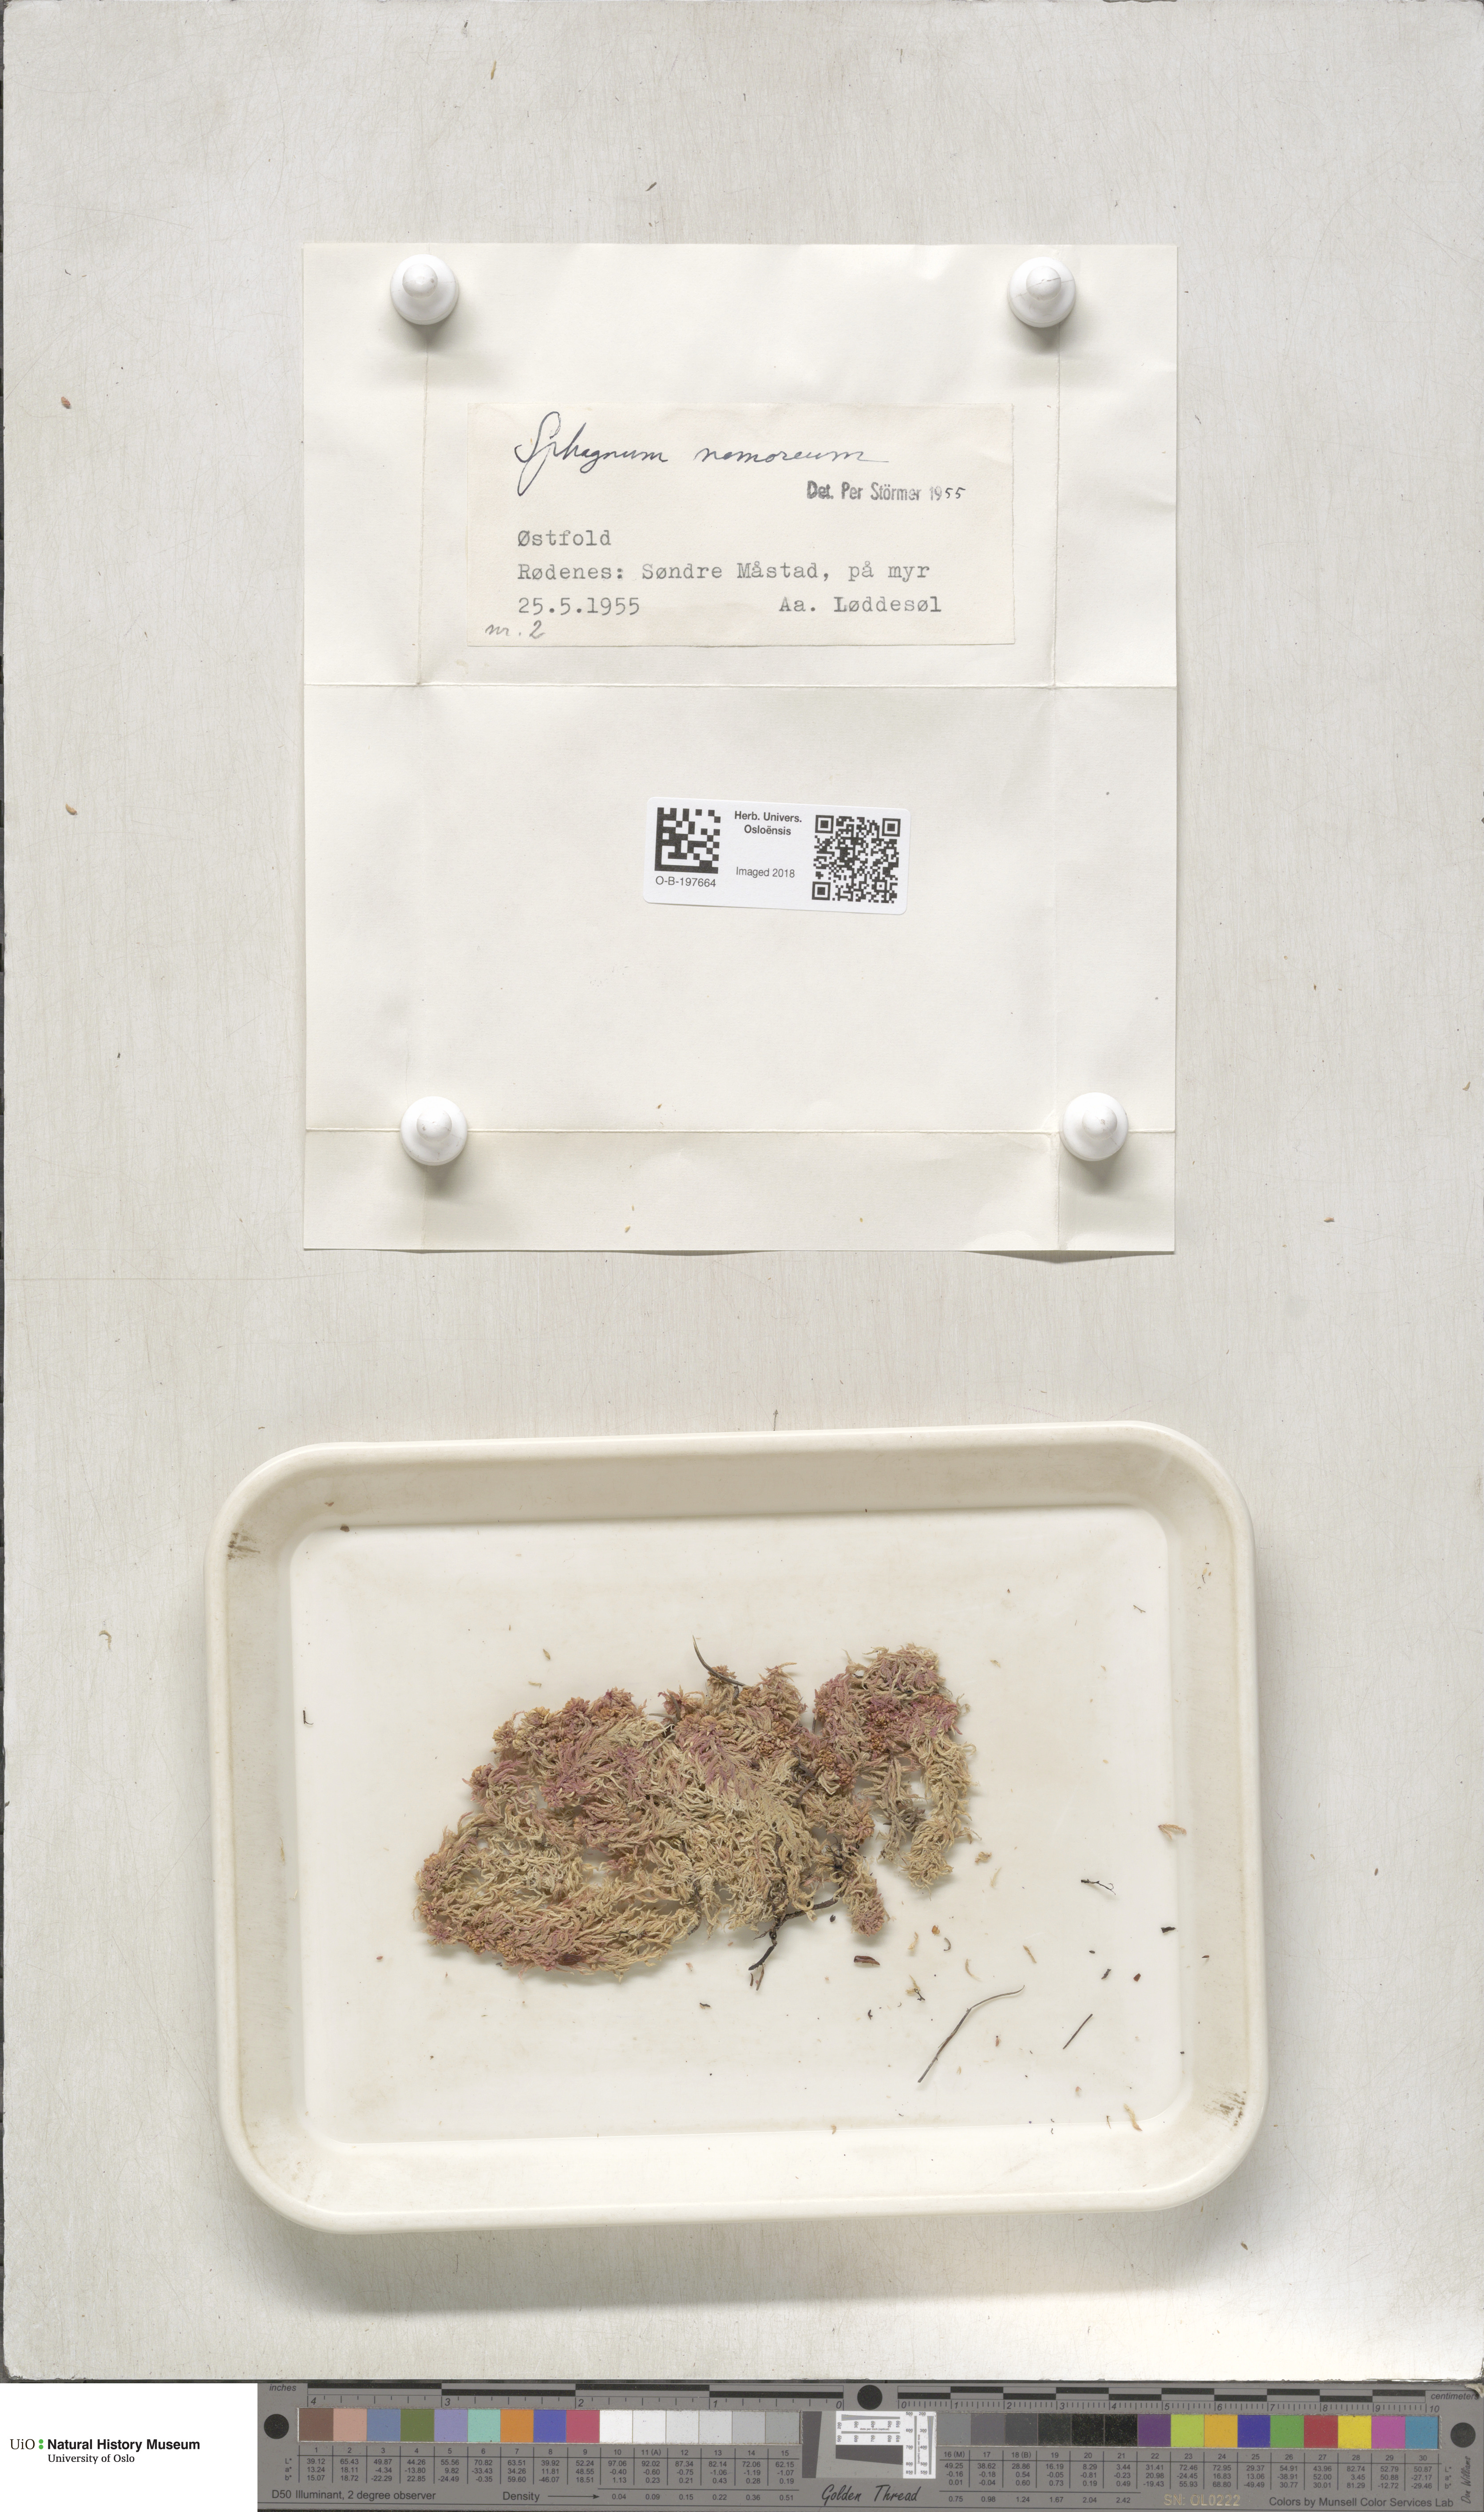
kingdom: Plantae
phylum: Bryophyta
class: Sphagnopsida
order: Sphagnales
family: Sphagnaceae
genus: Sphagnum
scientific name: Sphagnum capillifolium
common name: Small red peat moss
